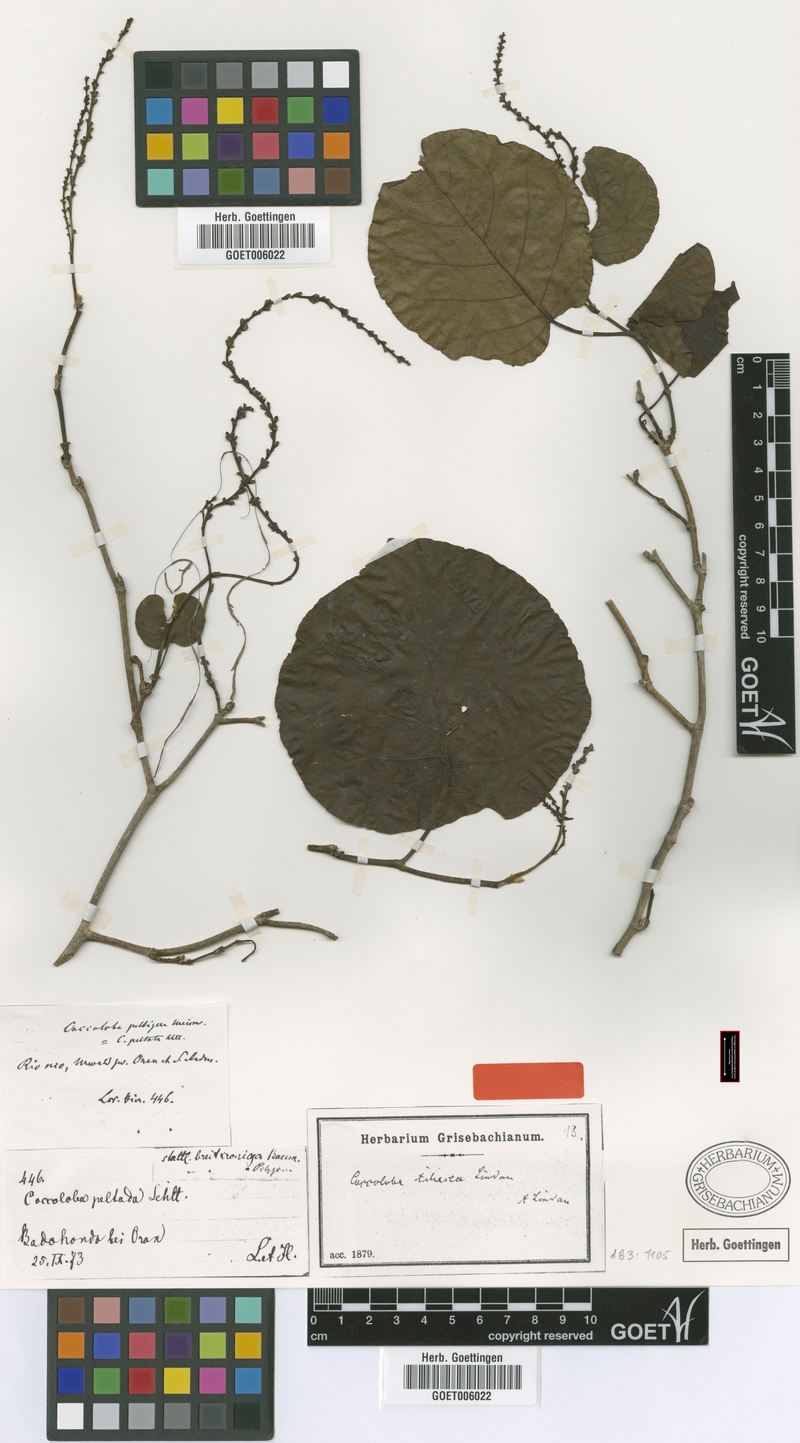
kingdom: Plantae
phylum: Tracheophyta
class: Magnoliopsida
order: Caryophyllales
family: Polygonaceae
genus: Coccoloba
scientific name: Coccoloba tiliacea
